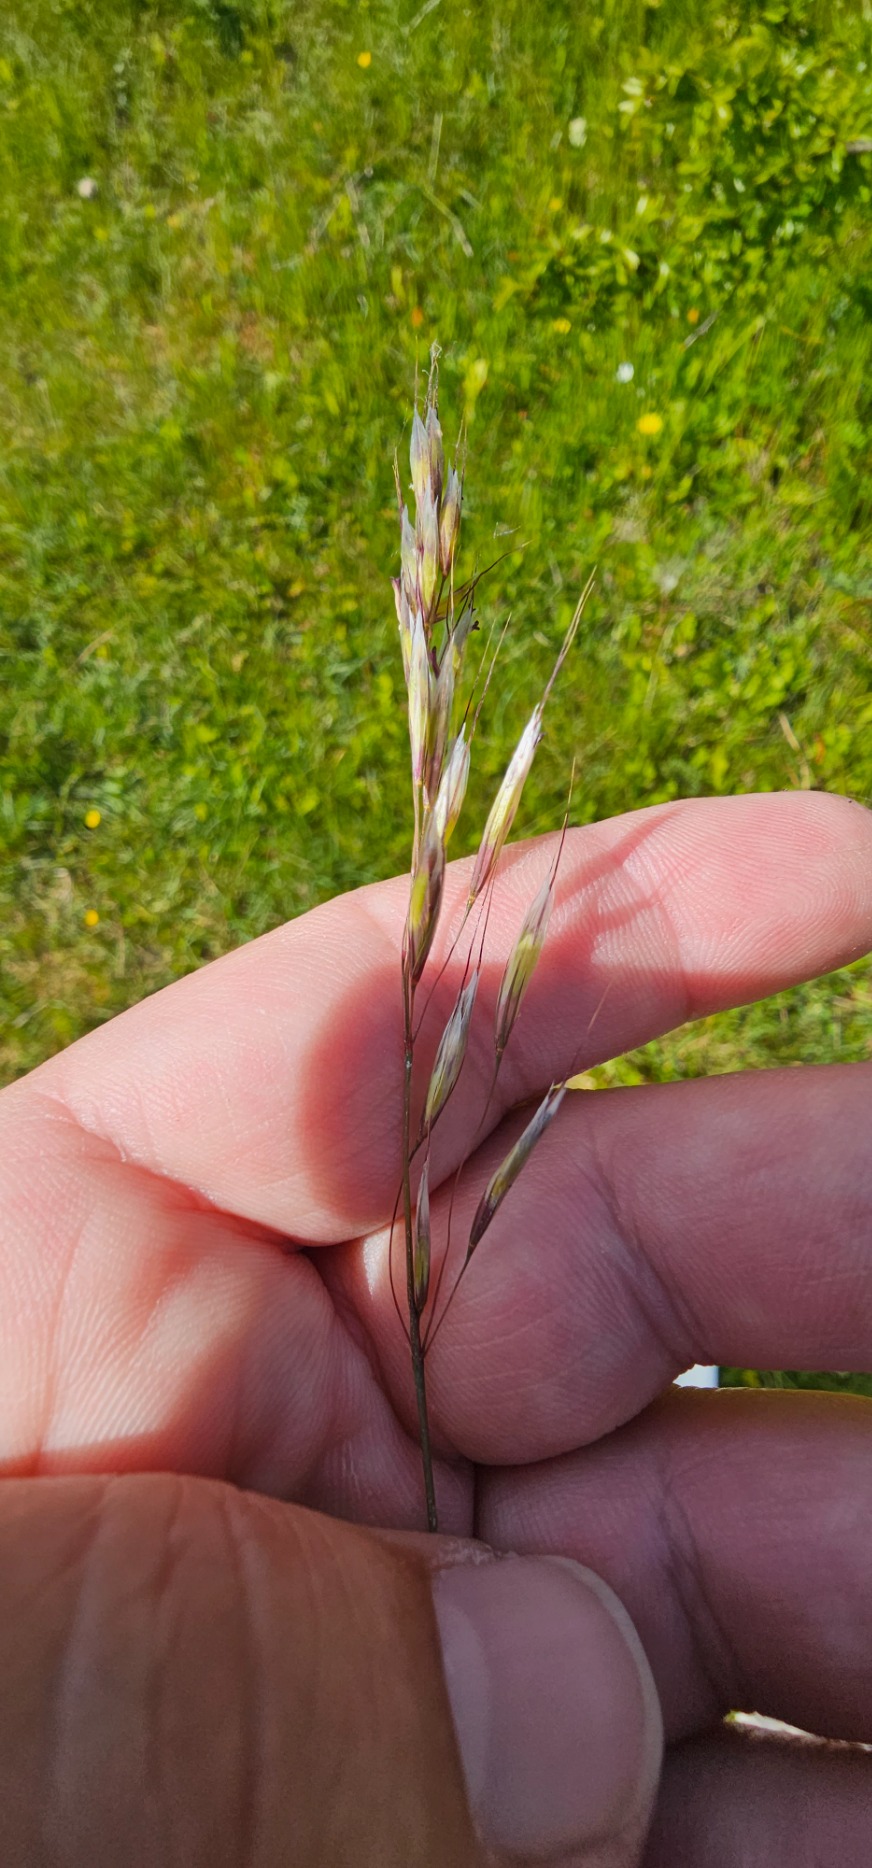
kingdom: Plantae
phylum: Tracheophyta
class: Liliopsida
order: Poales
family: Poaceae
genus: Helictochloa
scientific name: Helictochloa pratensis
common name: Eng-havre
